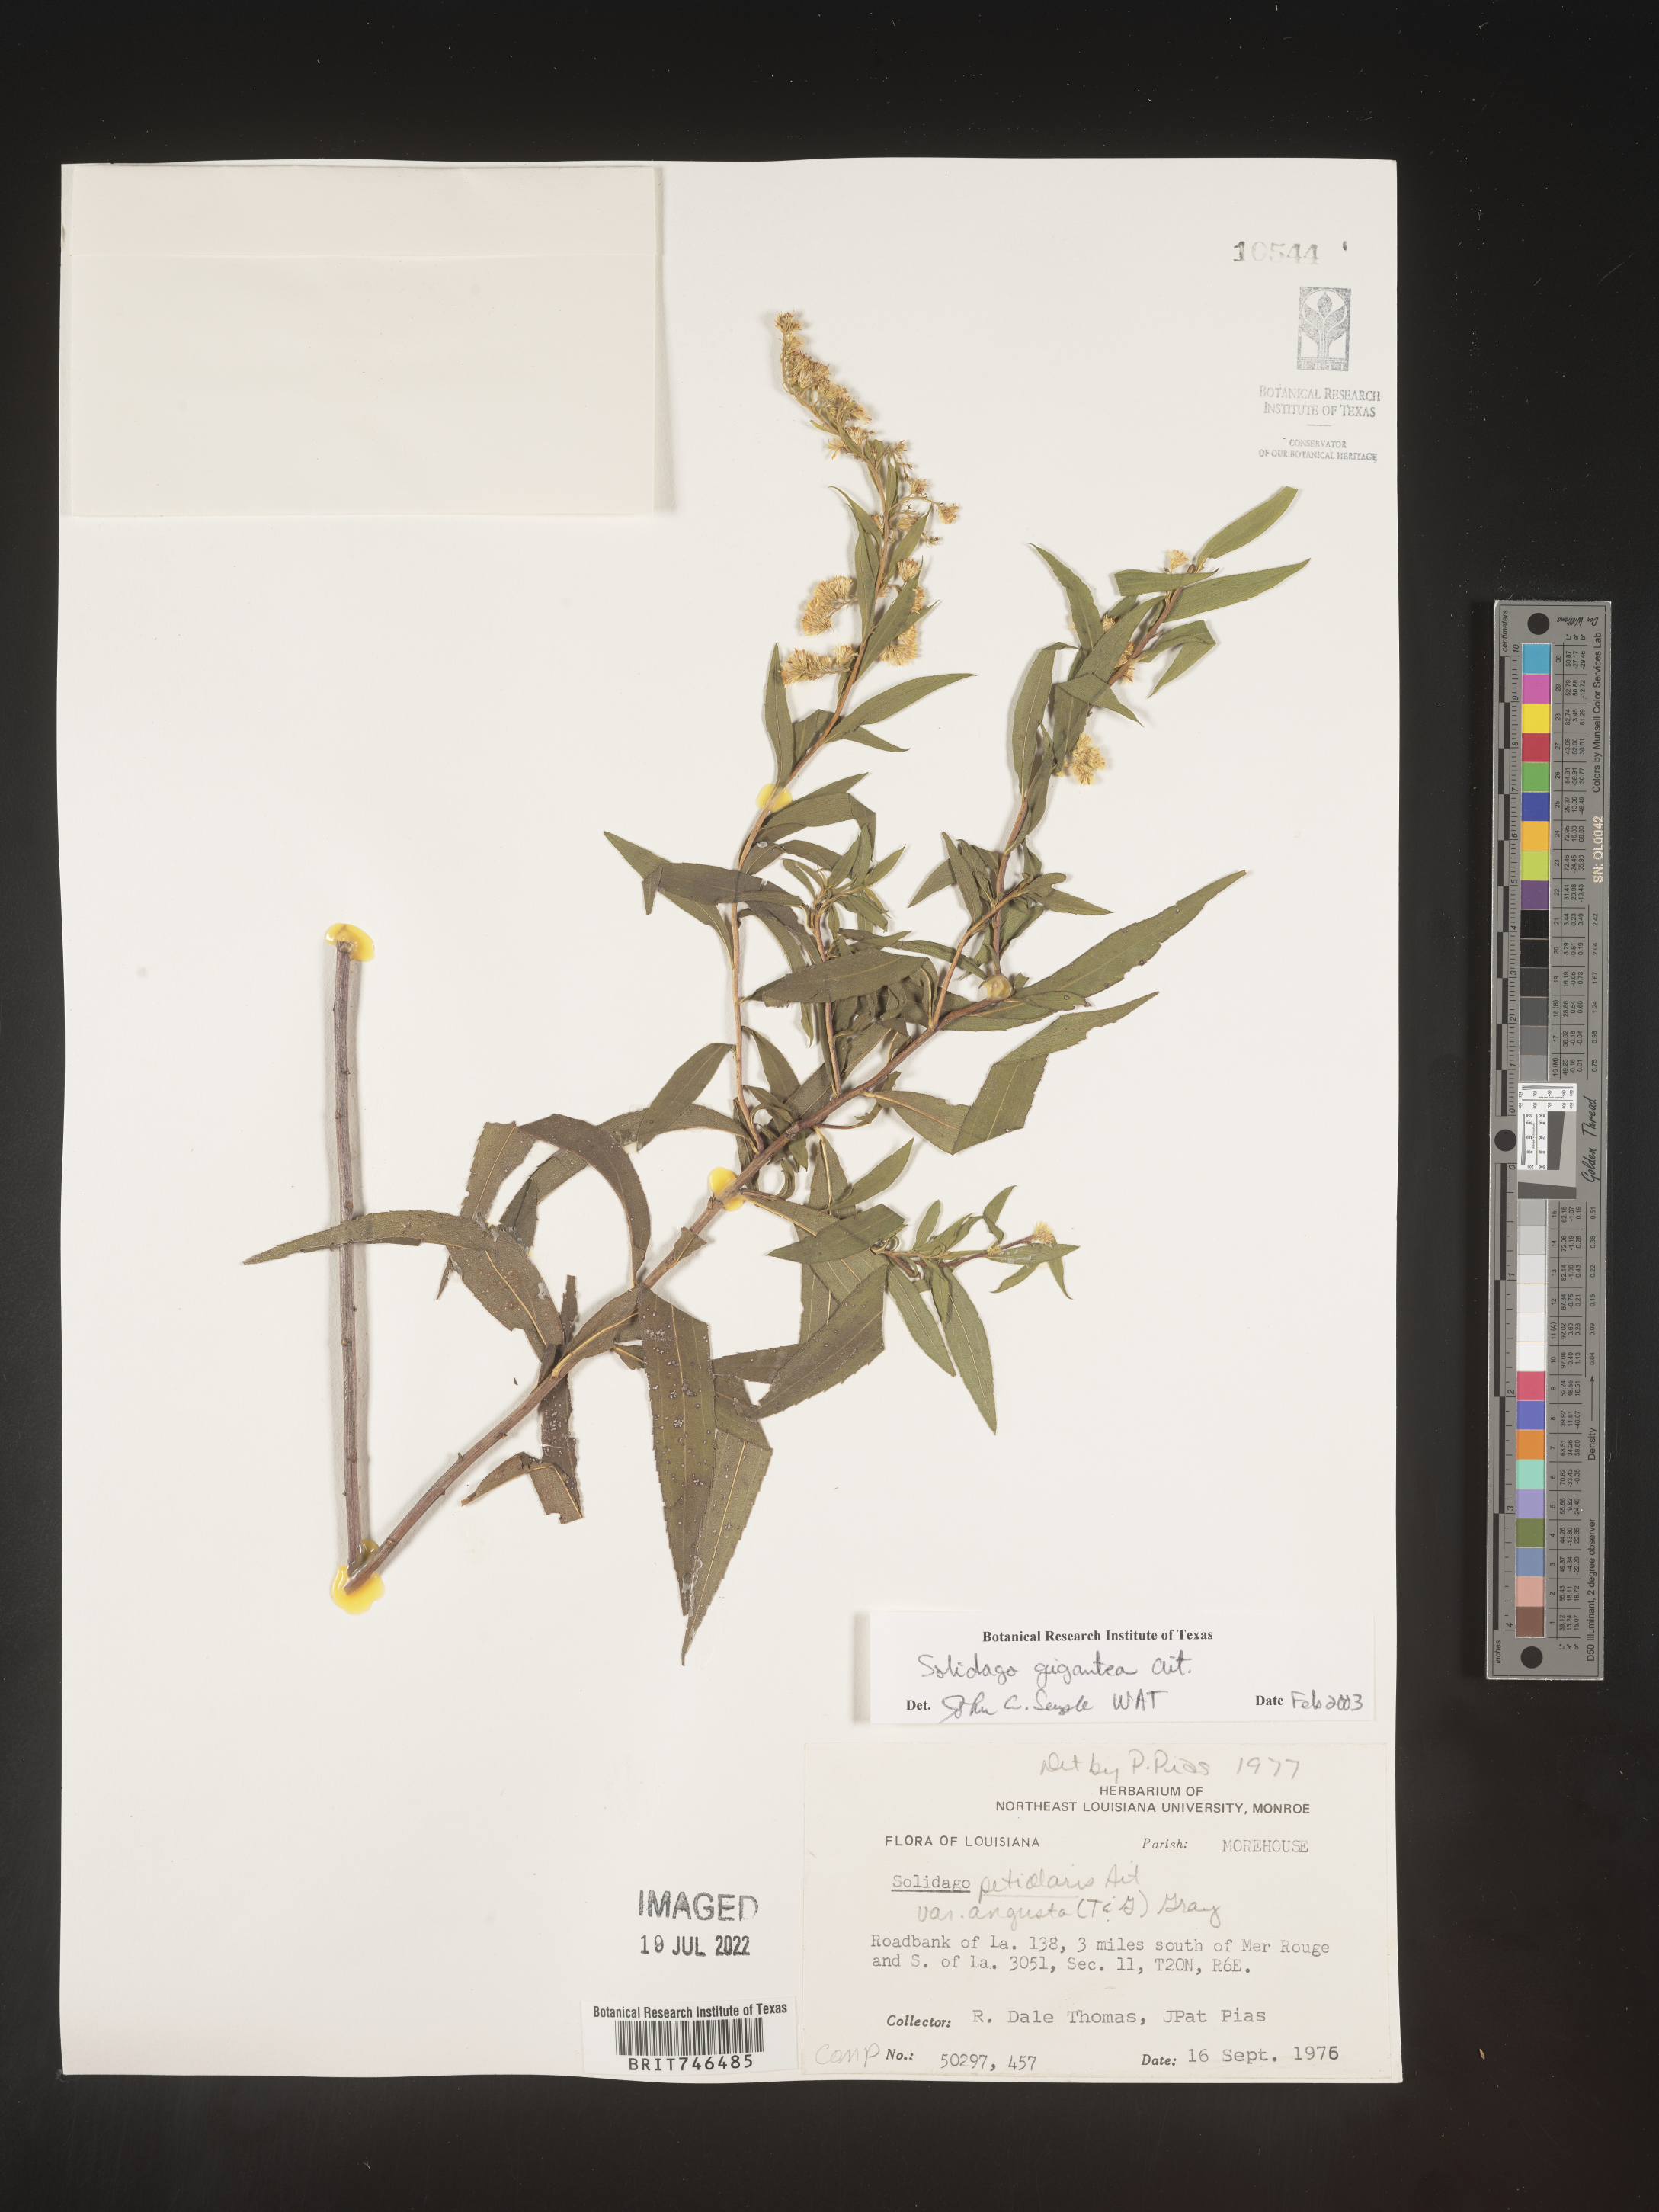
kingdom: Plantae
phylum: Tracheophyta
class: Magnoliopsida
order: Asterales
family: Asteraceae
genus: Solidago
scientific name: Solidago gigantea
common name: Giant goldenrod
